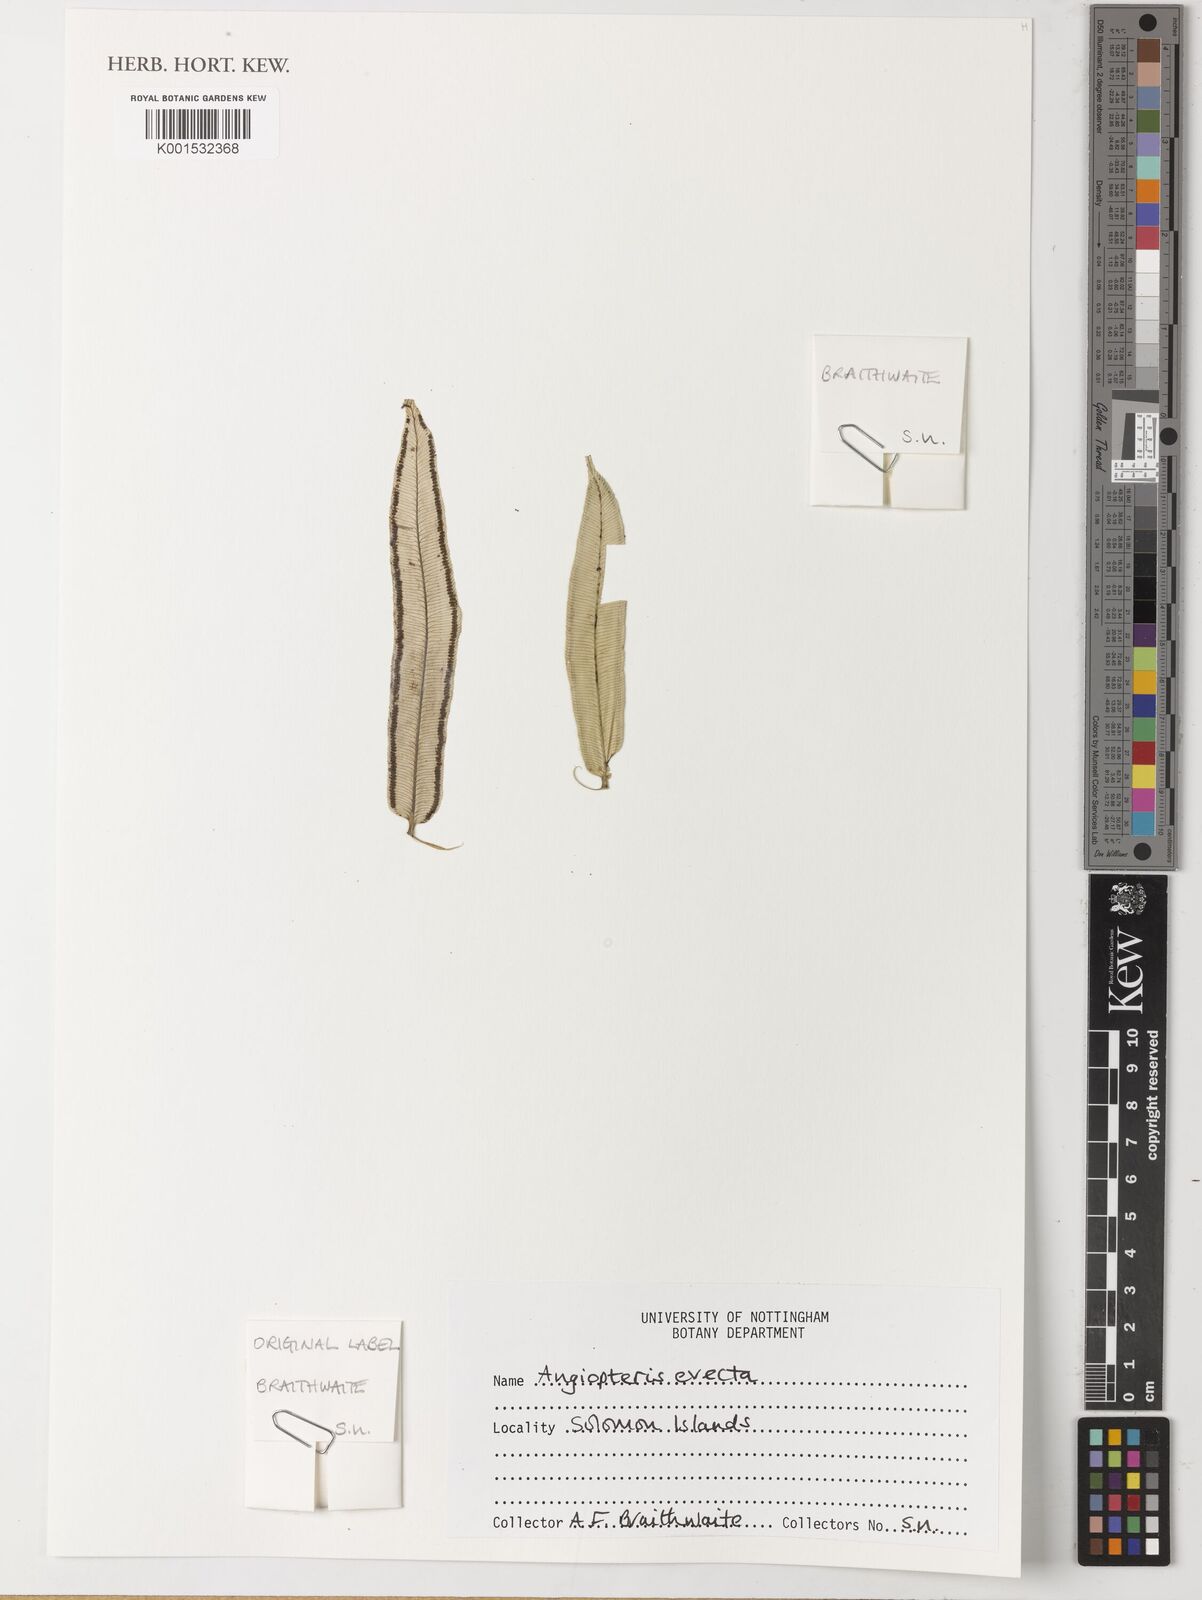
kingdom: Plantae
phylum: Tracheophyta
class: Polypodiopsida
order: Marattiales
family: Marattiaceae
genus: Angiopteris
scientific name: Angiopteris evecta
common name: Mule's-foot fern
